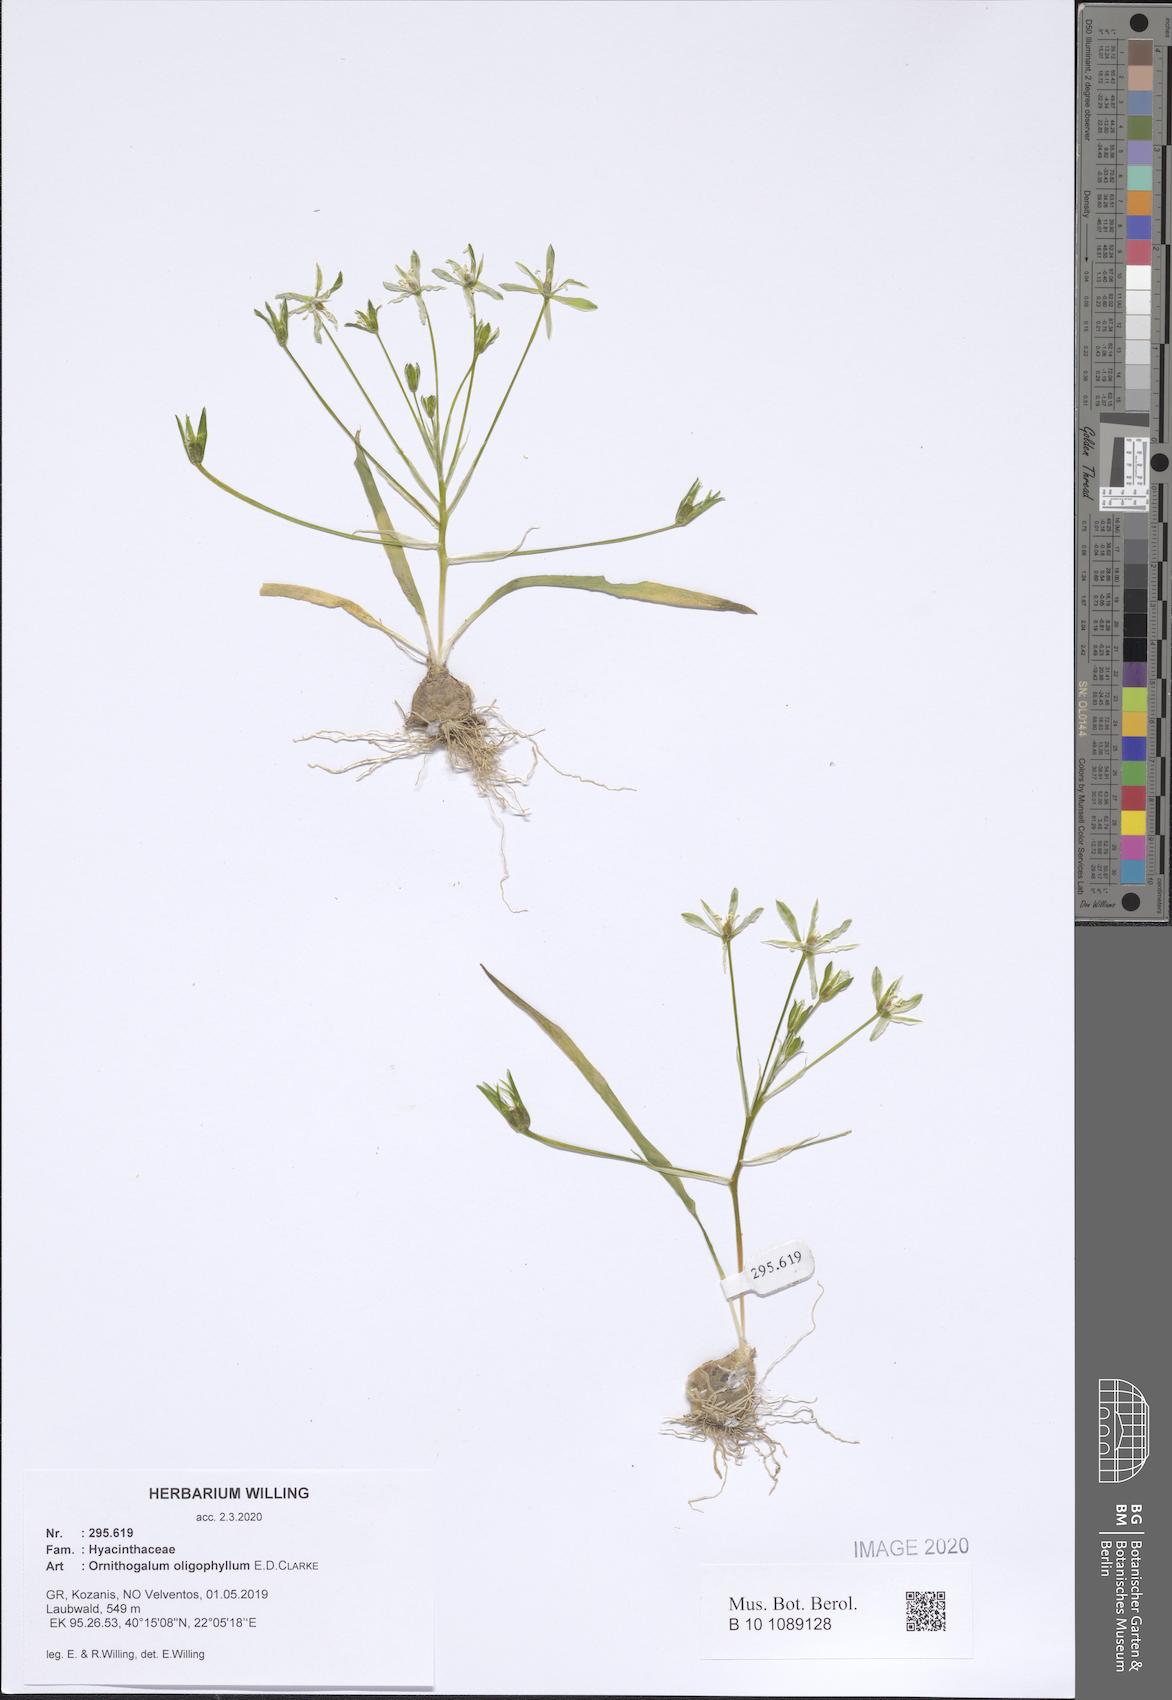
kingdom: Plantae
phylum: Tracheophyta
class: Liliopsida
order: Asparagales
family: Asparagaceae
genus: Ornithogalum
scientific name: Ornithogalum oligophyllum
